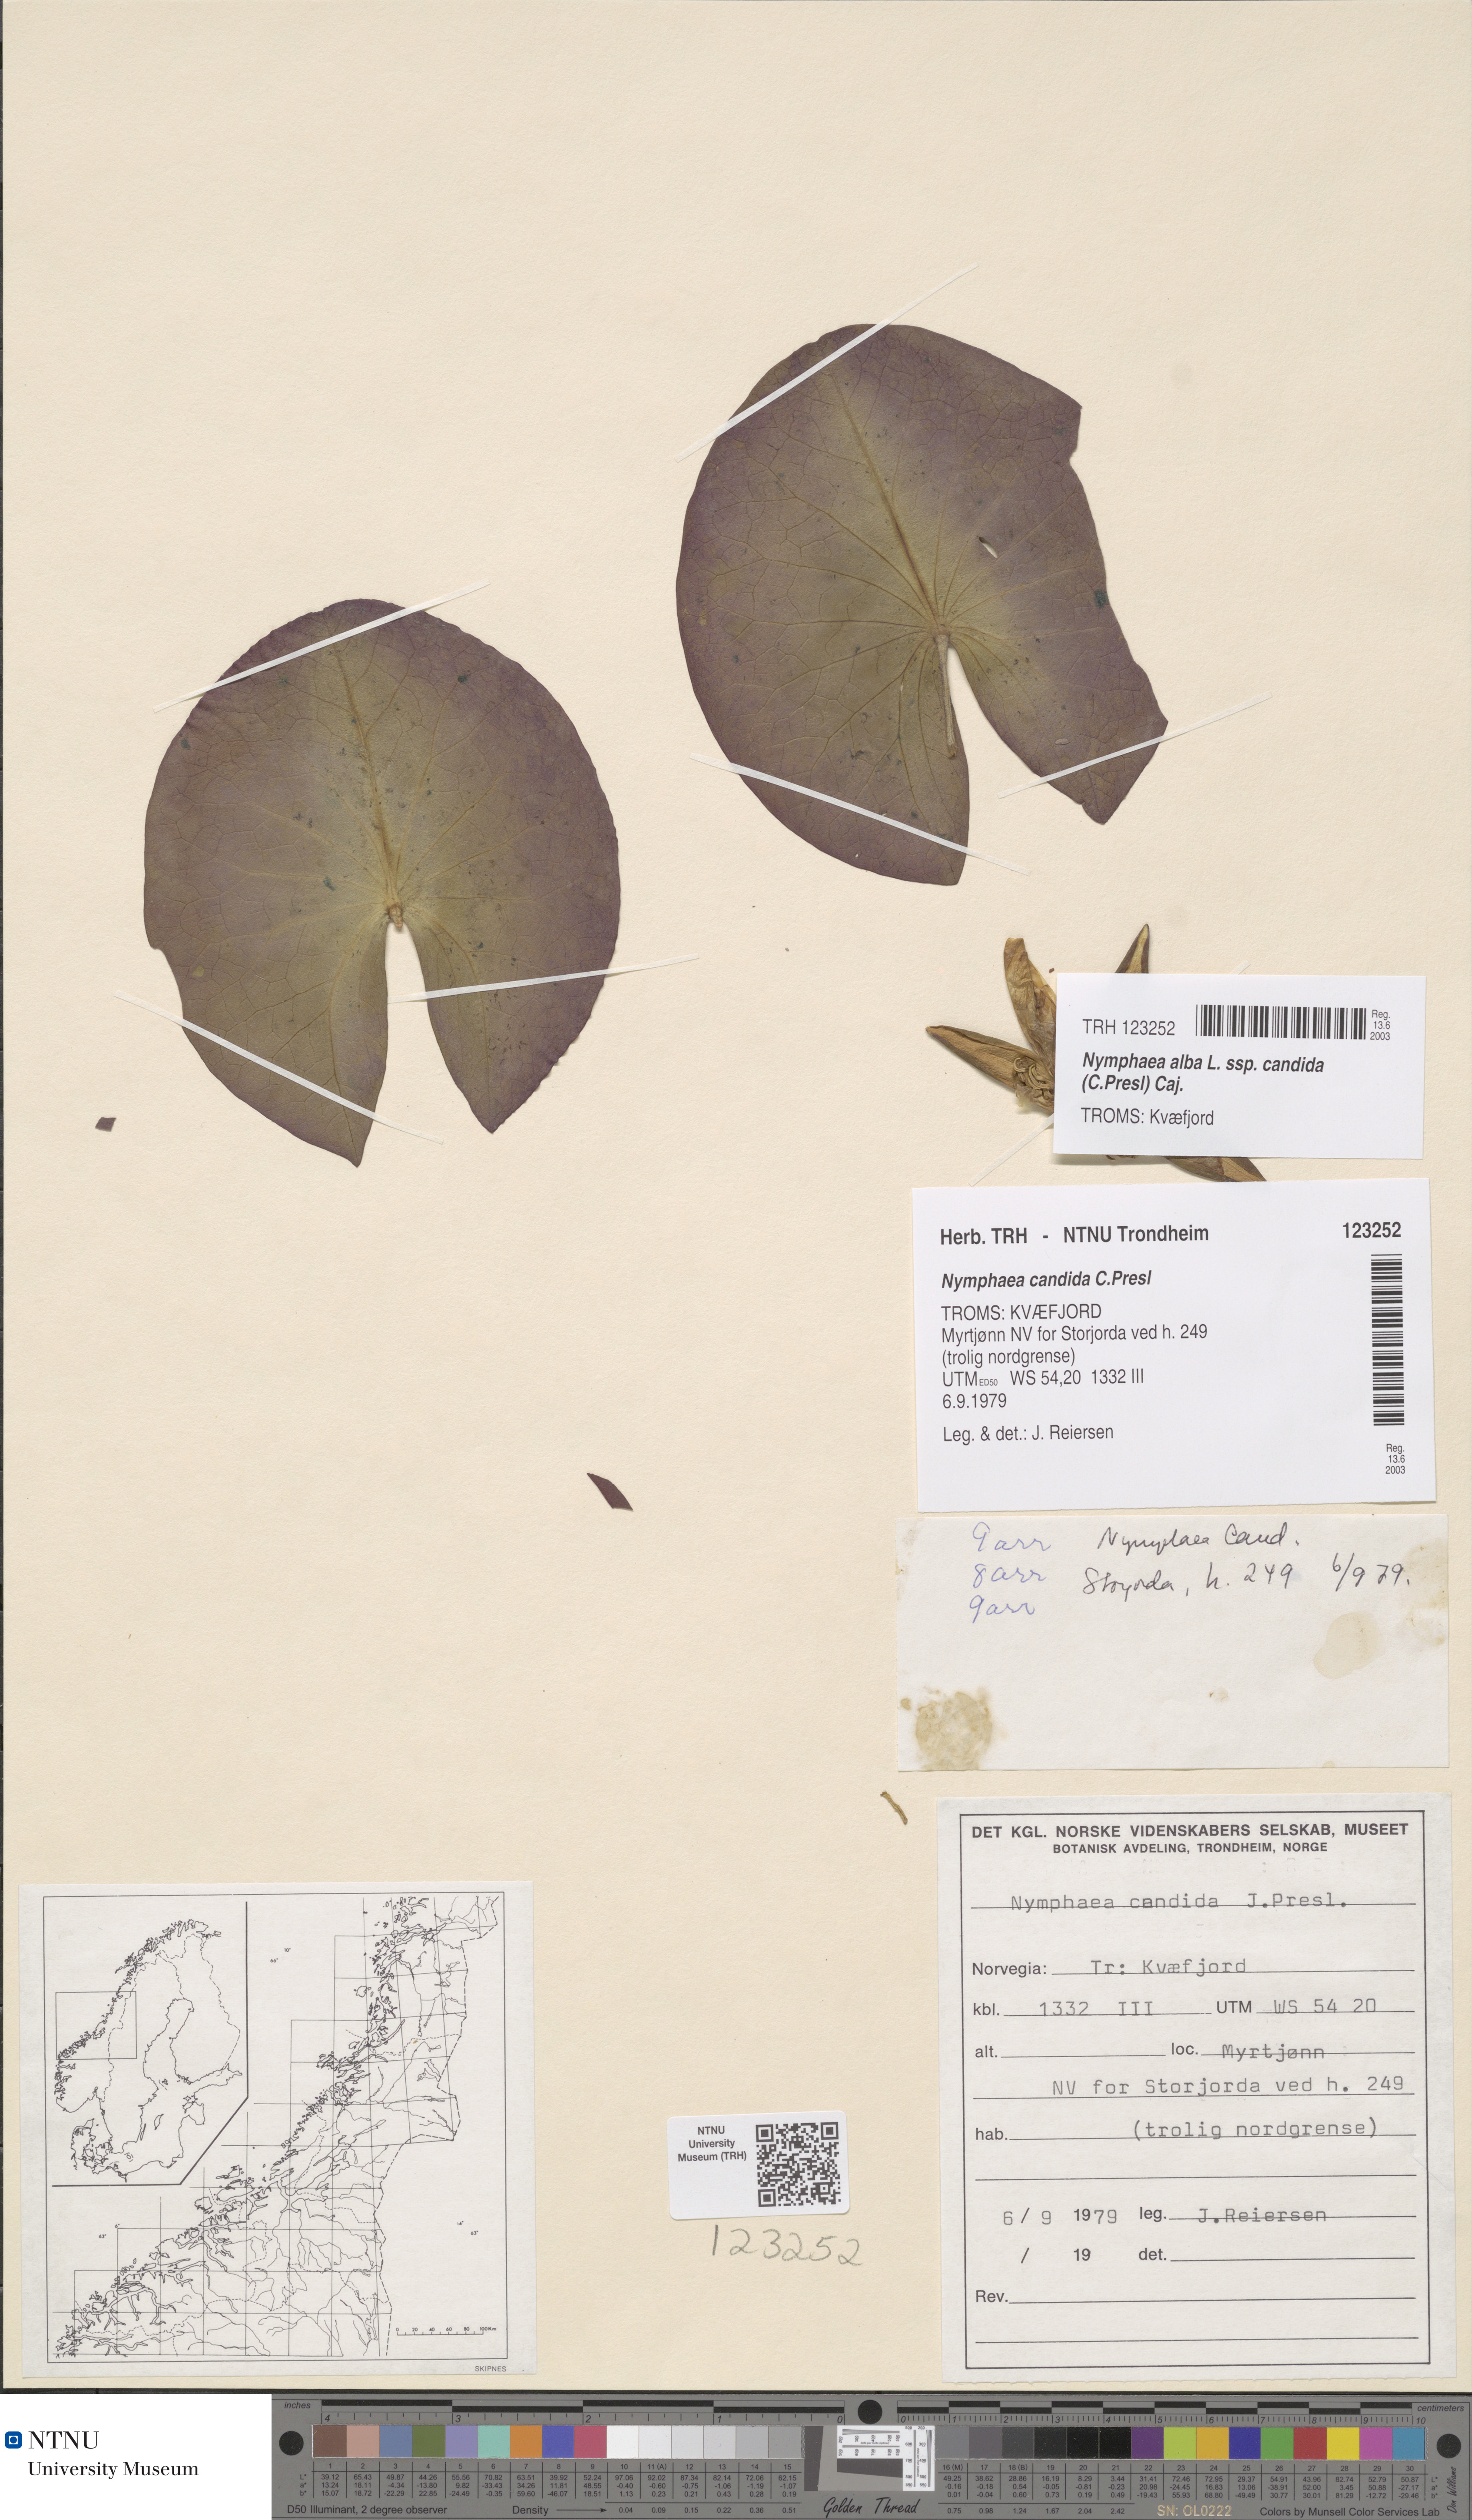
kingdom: Plantae
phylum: Tracheophyta
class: Magnoliopsida
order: Nymphaeales
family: Nymphaeaceae
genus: Nymphaea
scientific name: Nymphaea candida
